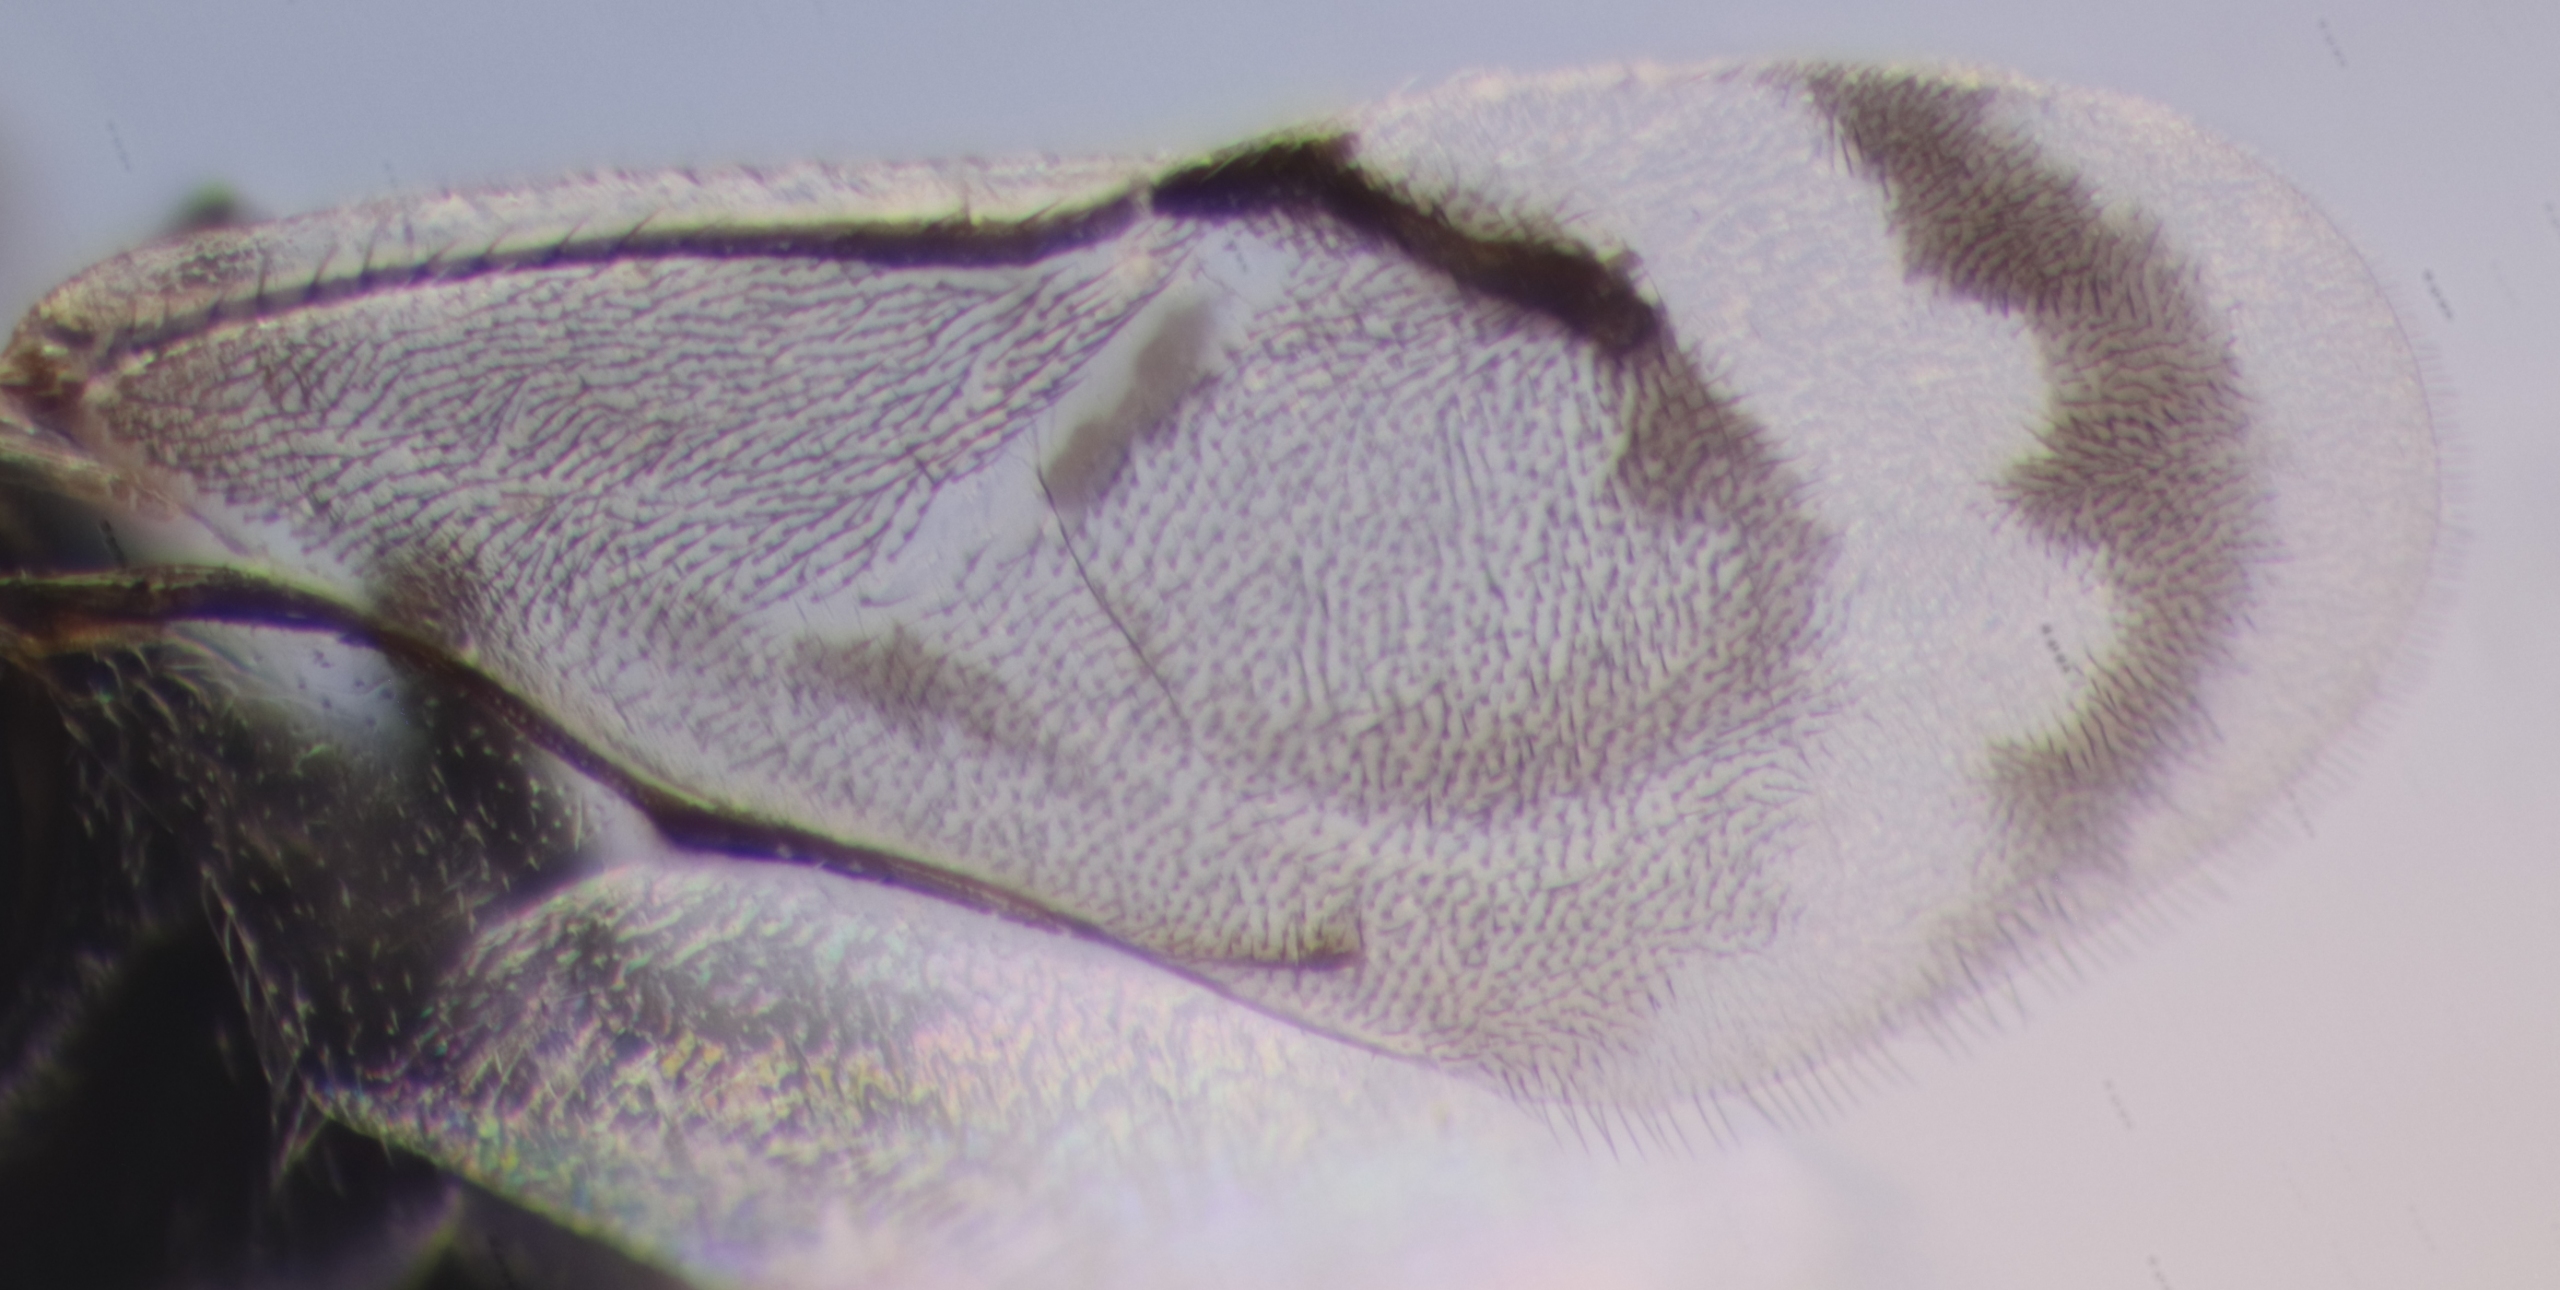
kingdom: Animalia
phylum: Arthropoda
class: Insecta
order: Hymenoptera
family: Encyrtidae
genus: Dinocarsis
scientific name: Dinocarsis hemiptera
